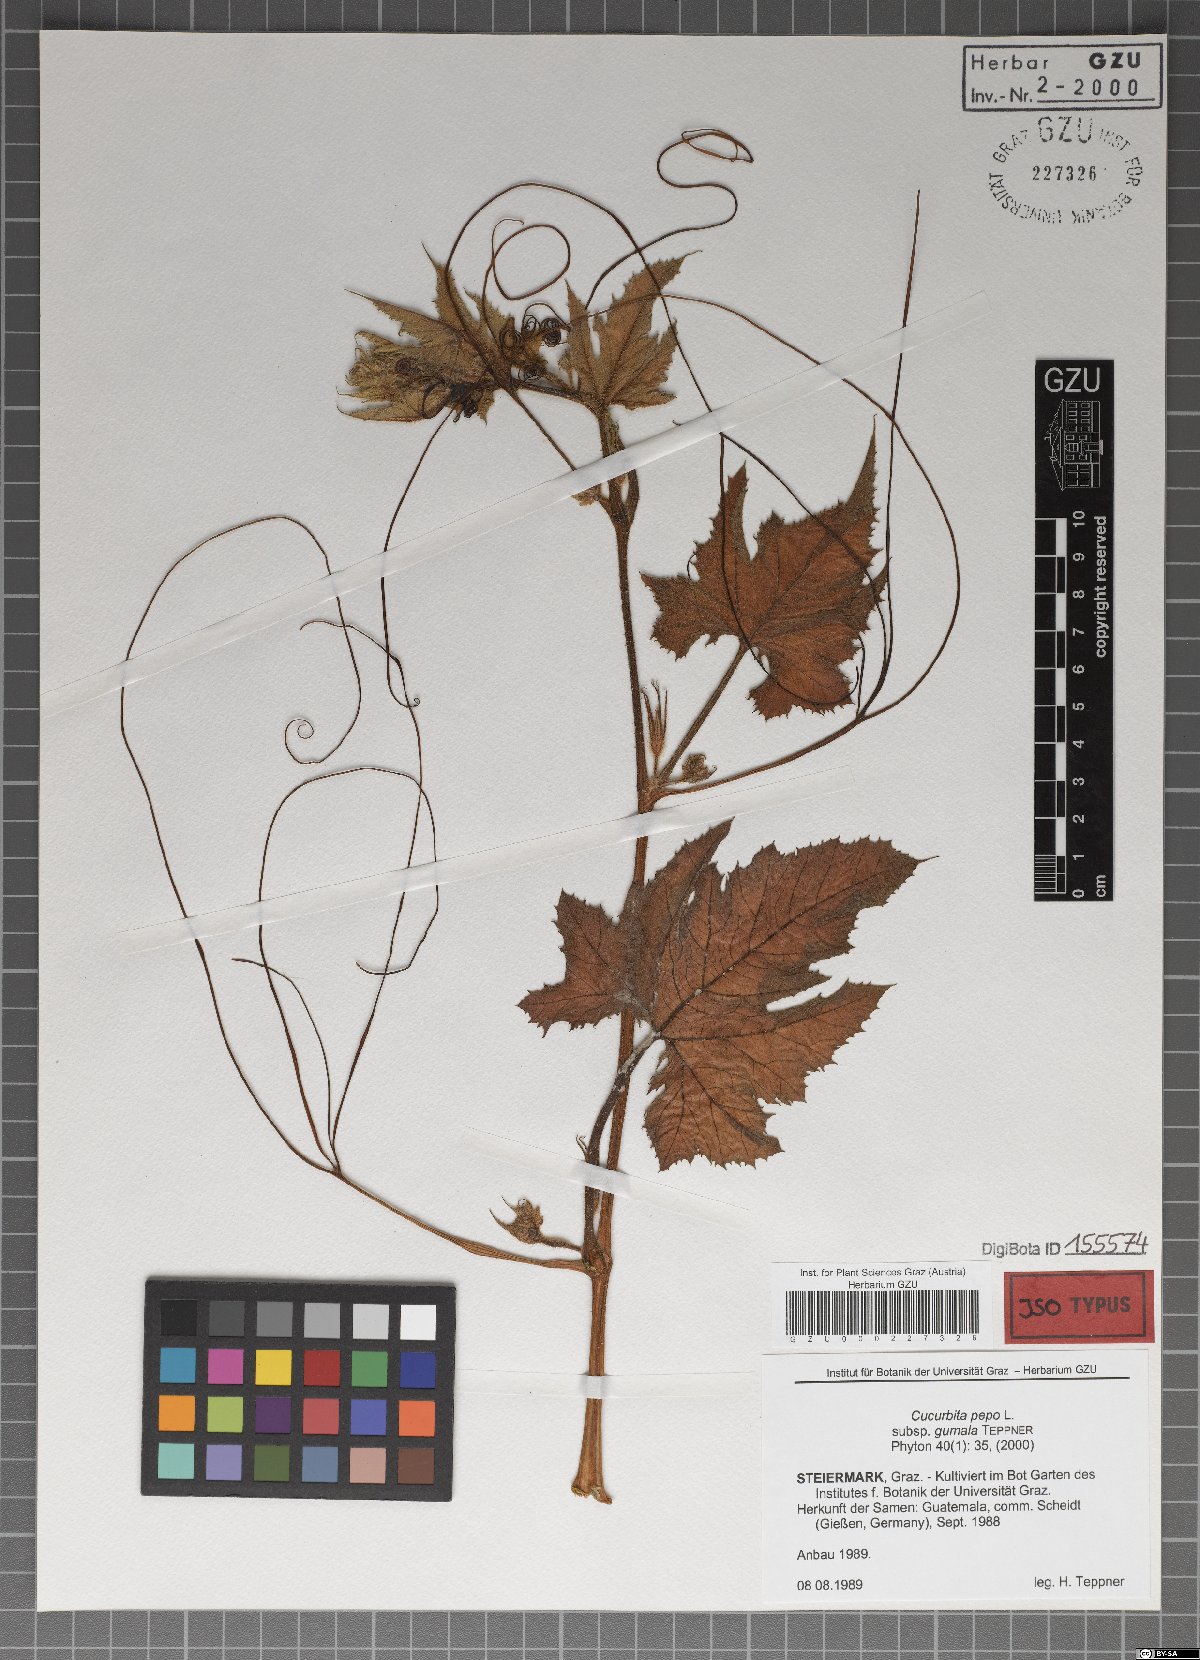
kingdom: Plantae
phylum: Tracheophyta
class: Magnoliopsida
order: Cucurbitales
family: Cucurbitaceae
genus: Cucurbita
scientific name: Cucurbita pepo
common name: Marrow
